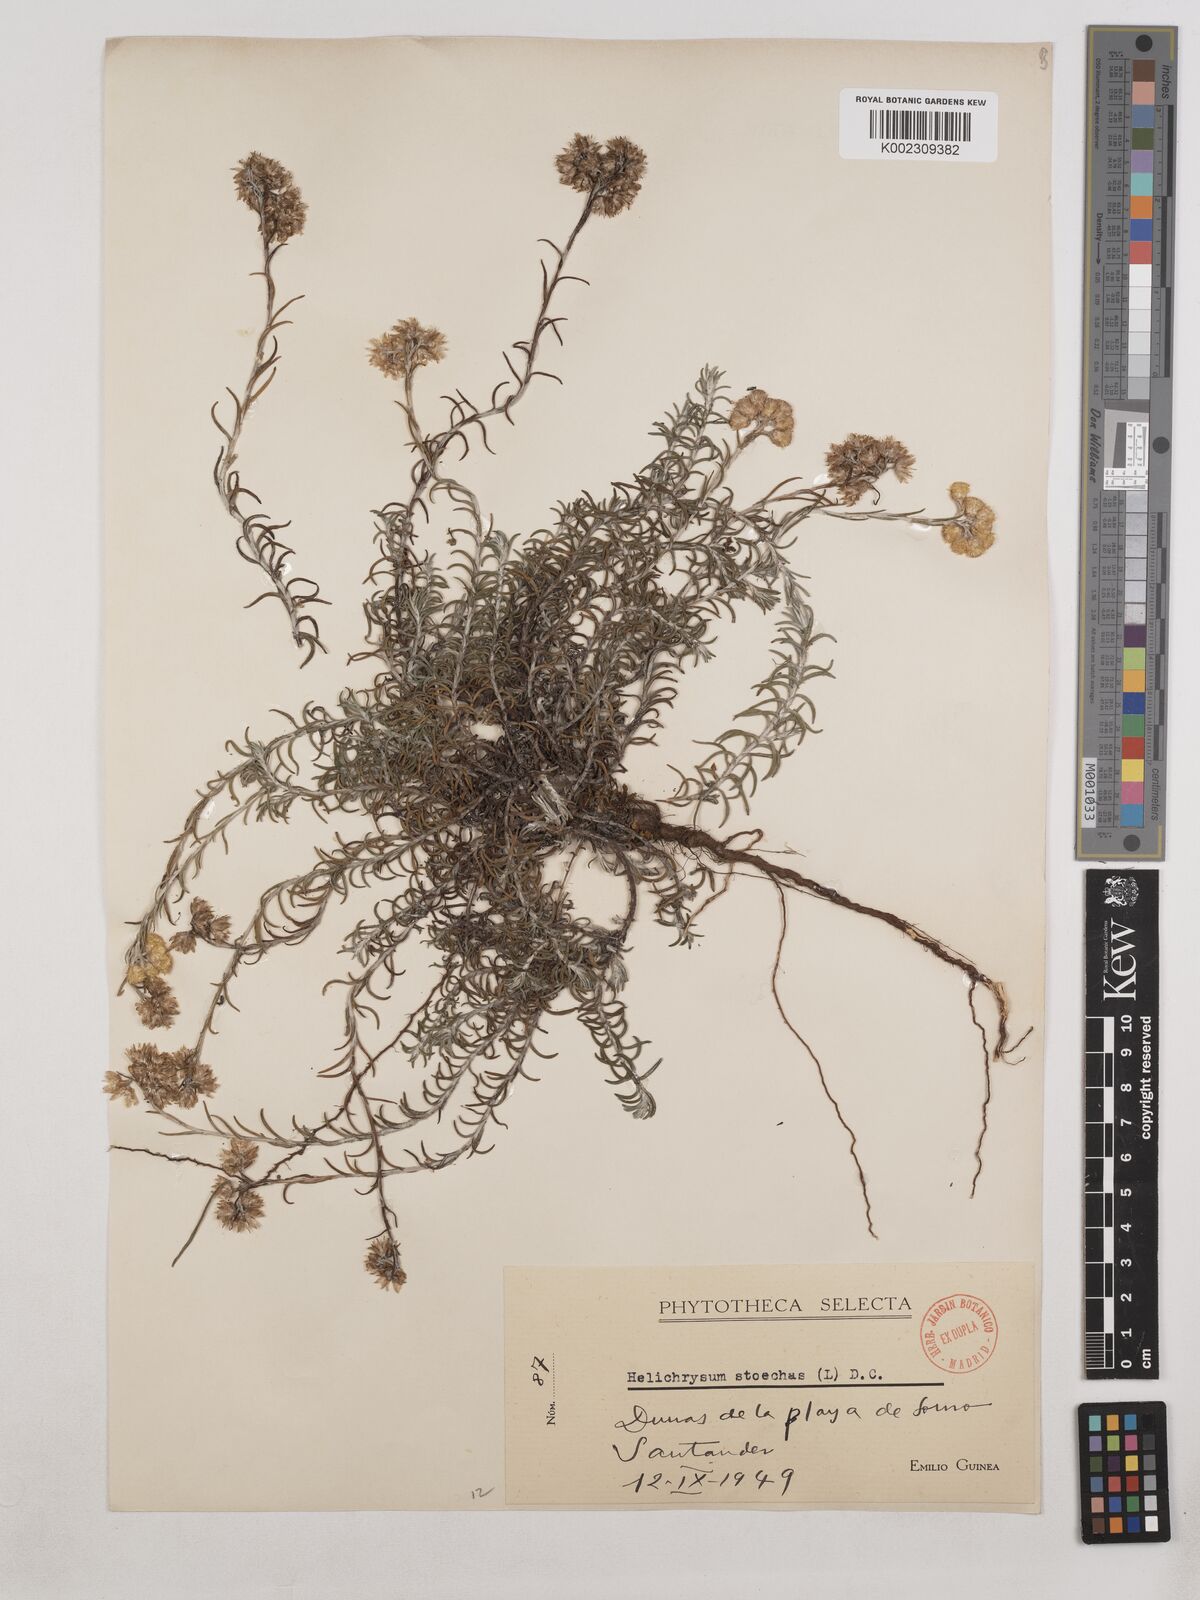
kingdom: Plantae
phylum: Tracheophyta
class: Magnoliopsida
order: Asterales
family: Asteraceae
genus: Helichrysum
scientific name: Helichrysum
